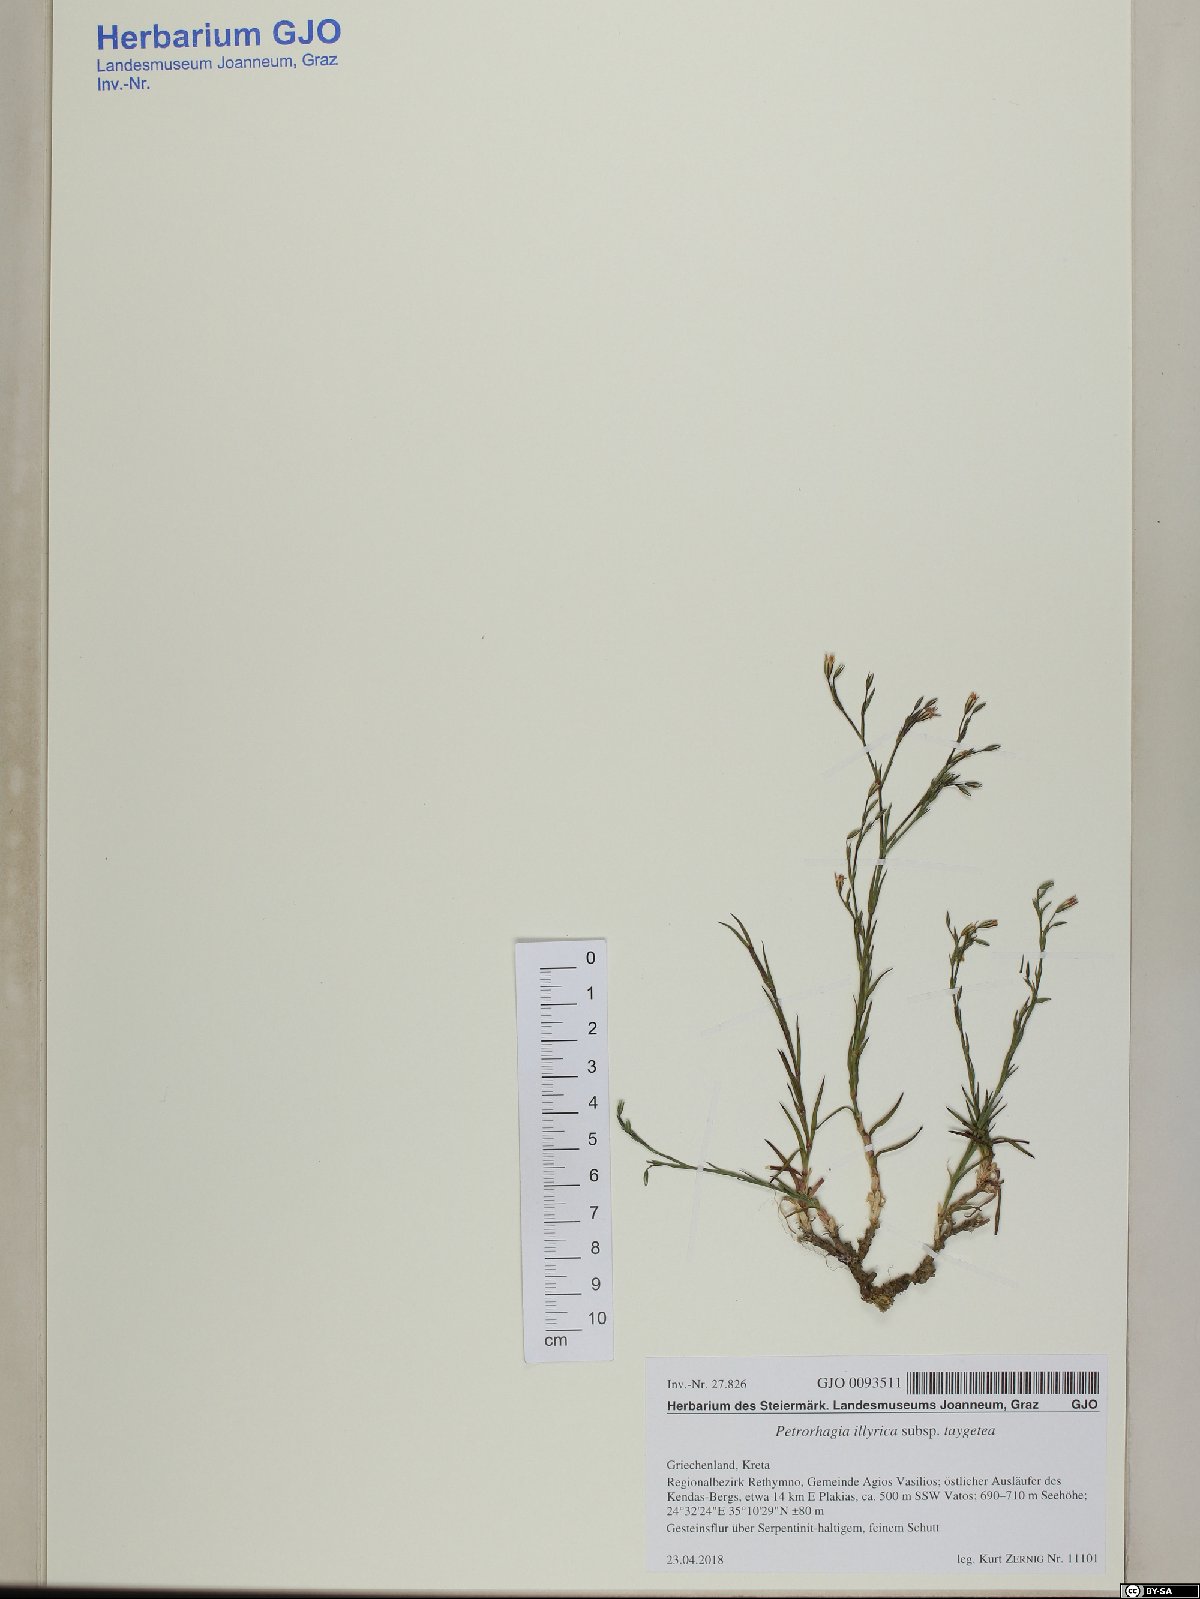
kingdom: Plantae
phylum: Tracheophyta
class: Magnoliopsida
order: Caryophyllales
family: Caryophyllaceae
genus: Dianthus
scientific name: Dianthus illyricus
